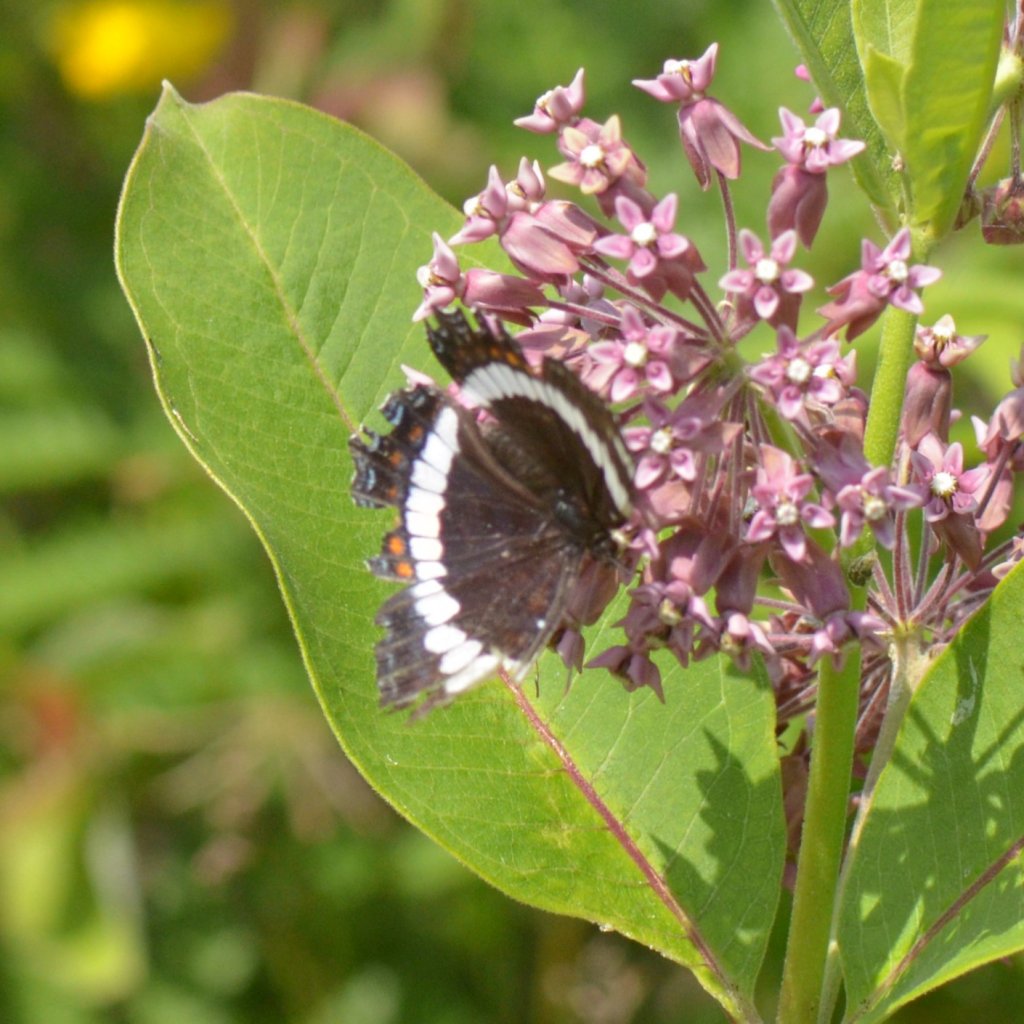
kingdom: Animalia
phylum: Arthropoda
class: Insecta
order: Lepidoptera
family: Nymphalidae
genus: Limenitis
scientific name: Limenitis arthemis
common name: Red-spotted Admiral
